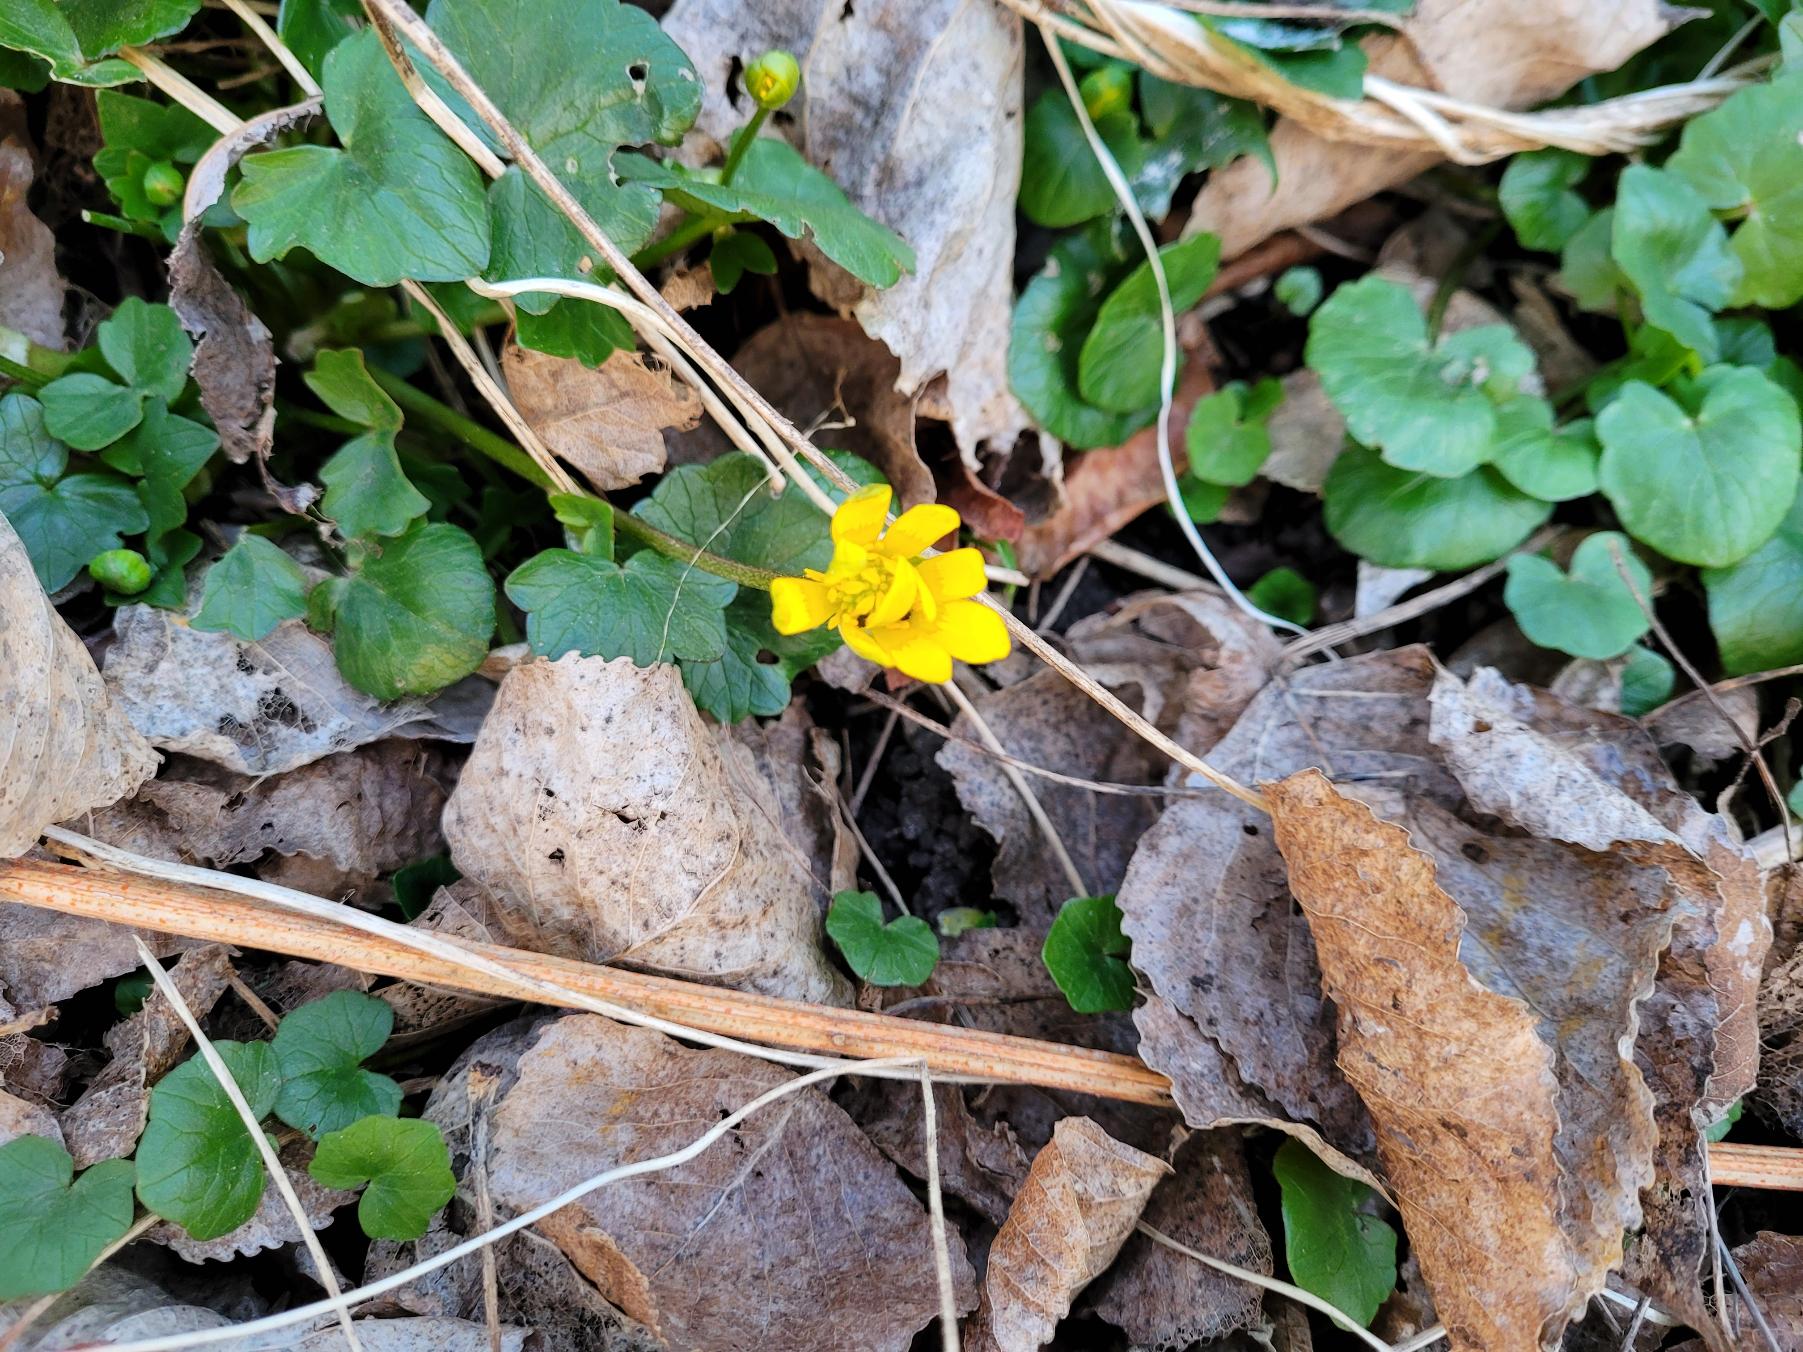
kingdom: Plantae
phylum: Tracheophyta
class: Magnoliopsida
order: Ranunculales
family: Ranunculaceae
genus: Ficaria
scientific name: Ficaria verna
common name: Vorterod
